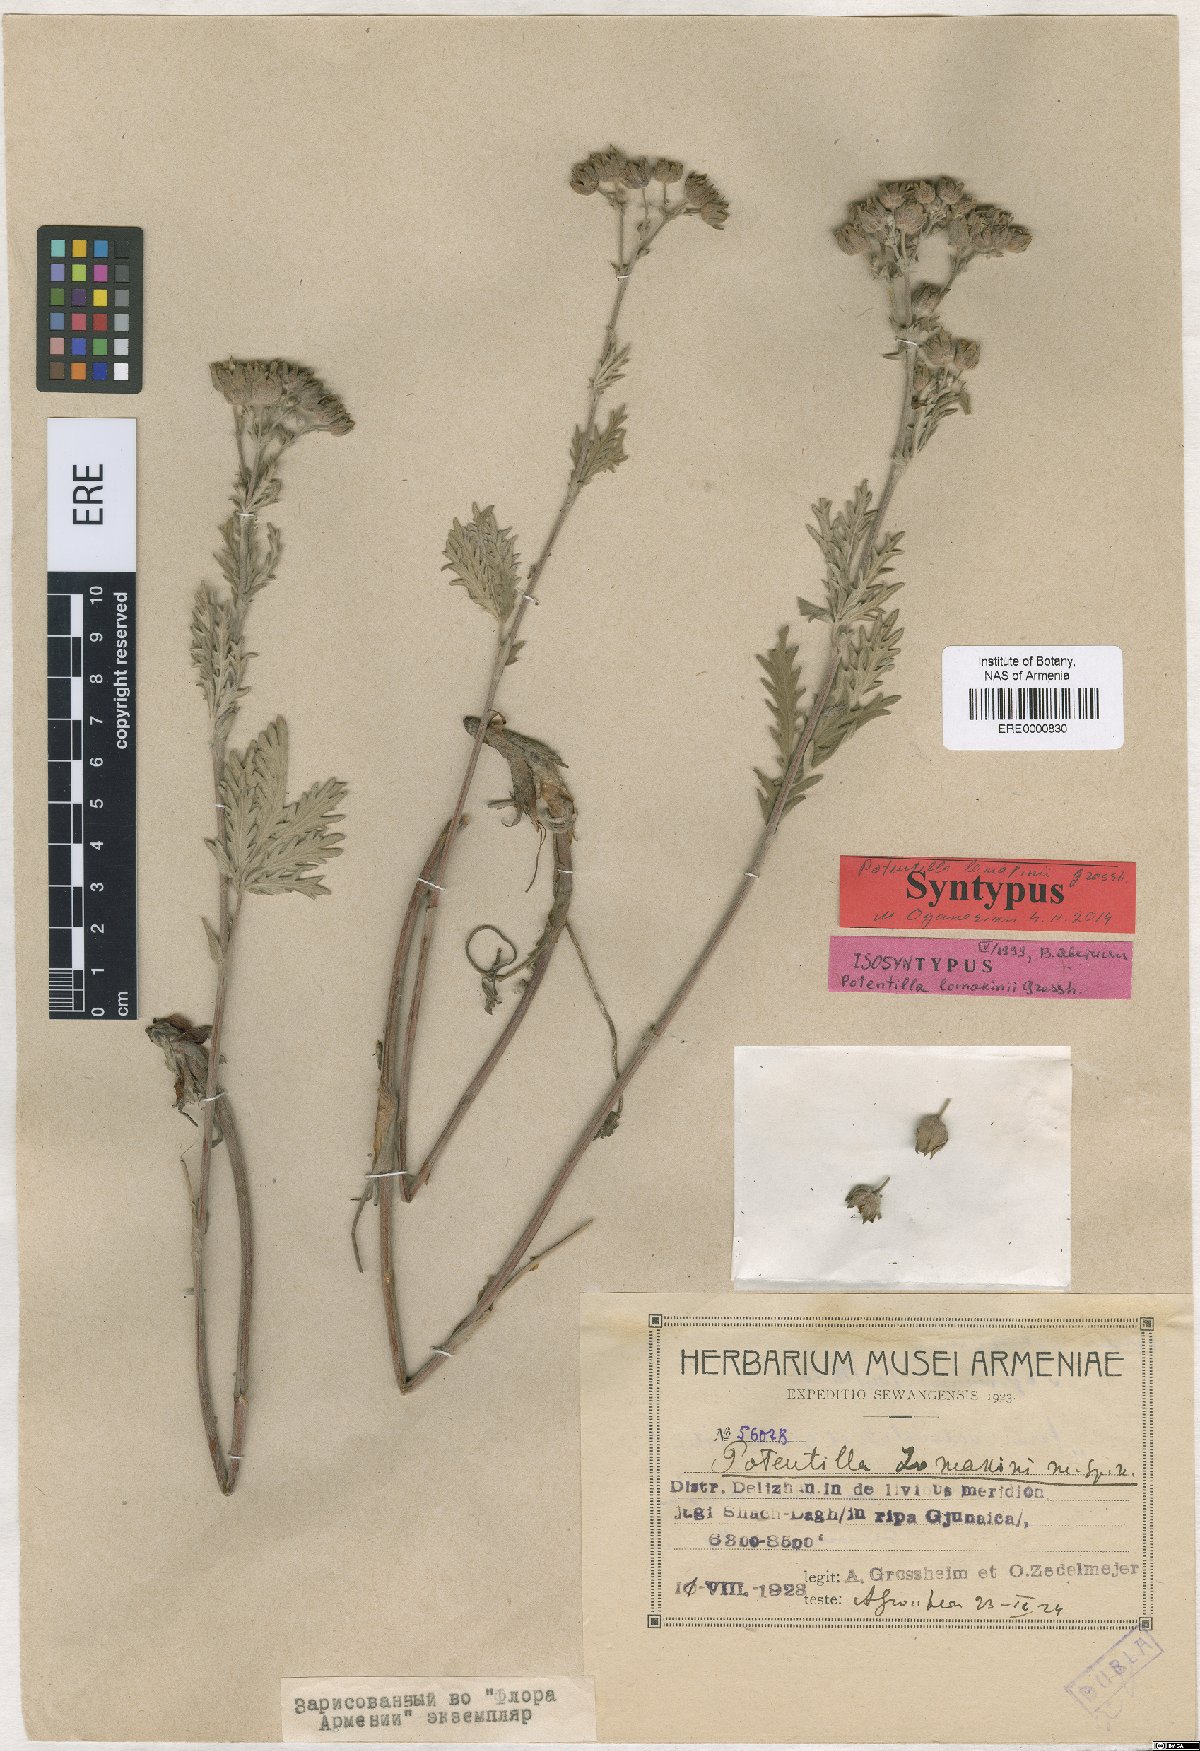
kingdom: Plantae
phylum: Tracheophyta
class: Magnoliopsida
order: Rosales
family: Rosaceae
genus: Potentilla
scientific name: Potentilla lomakinii
